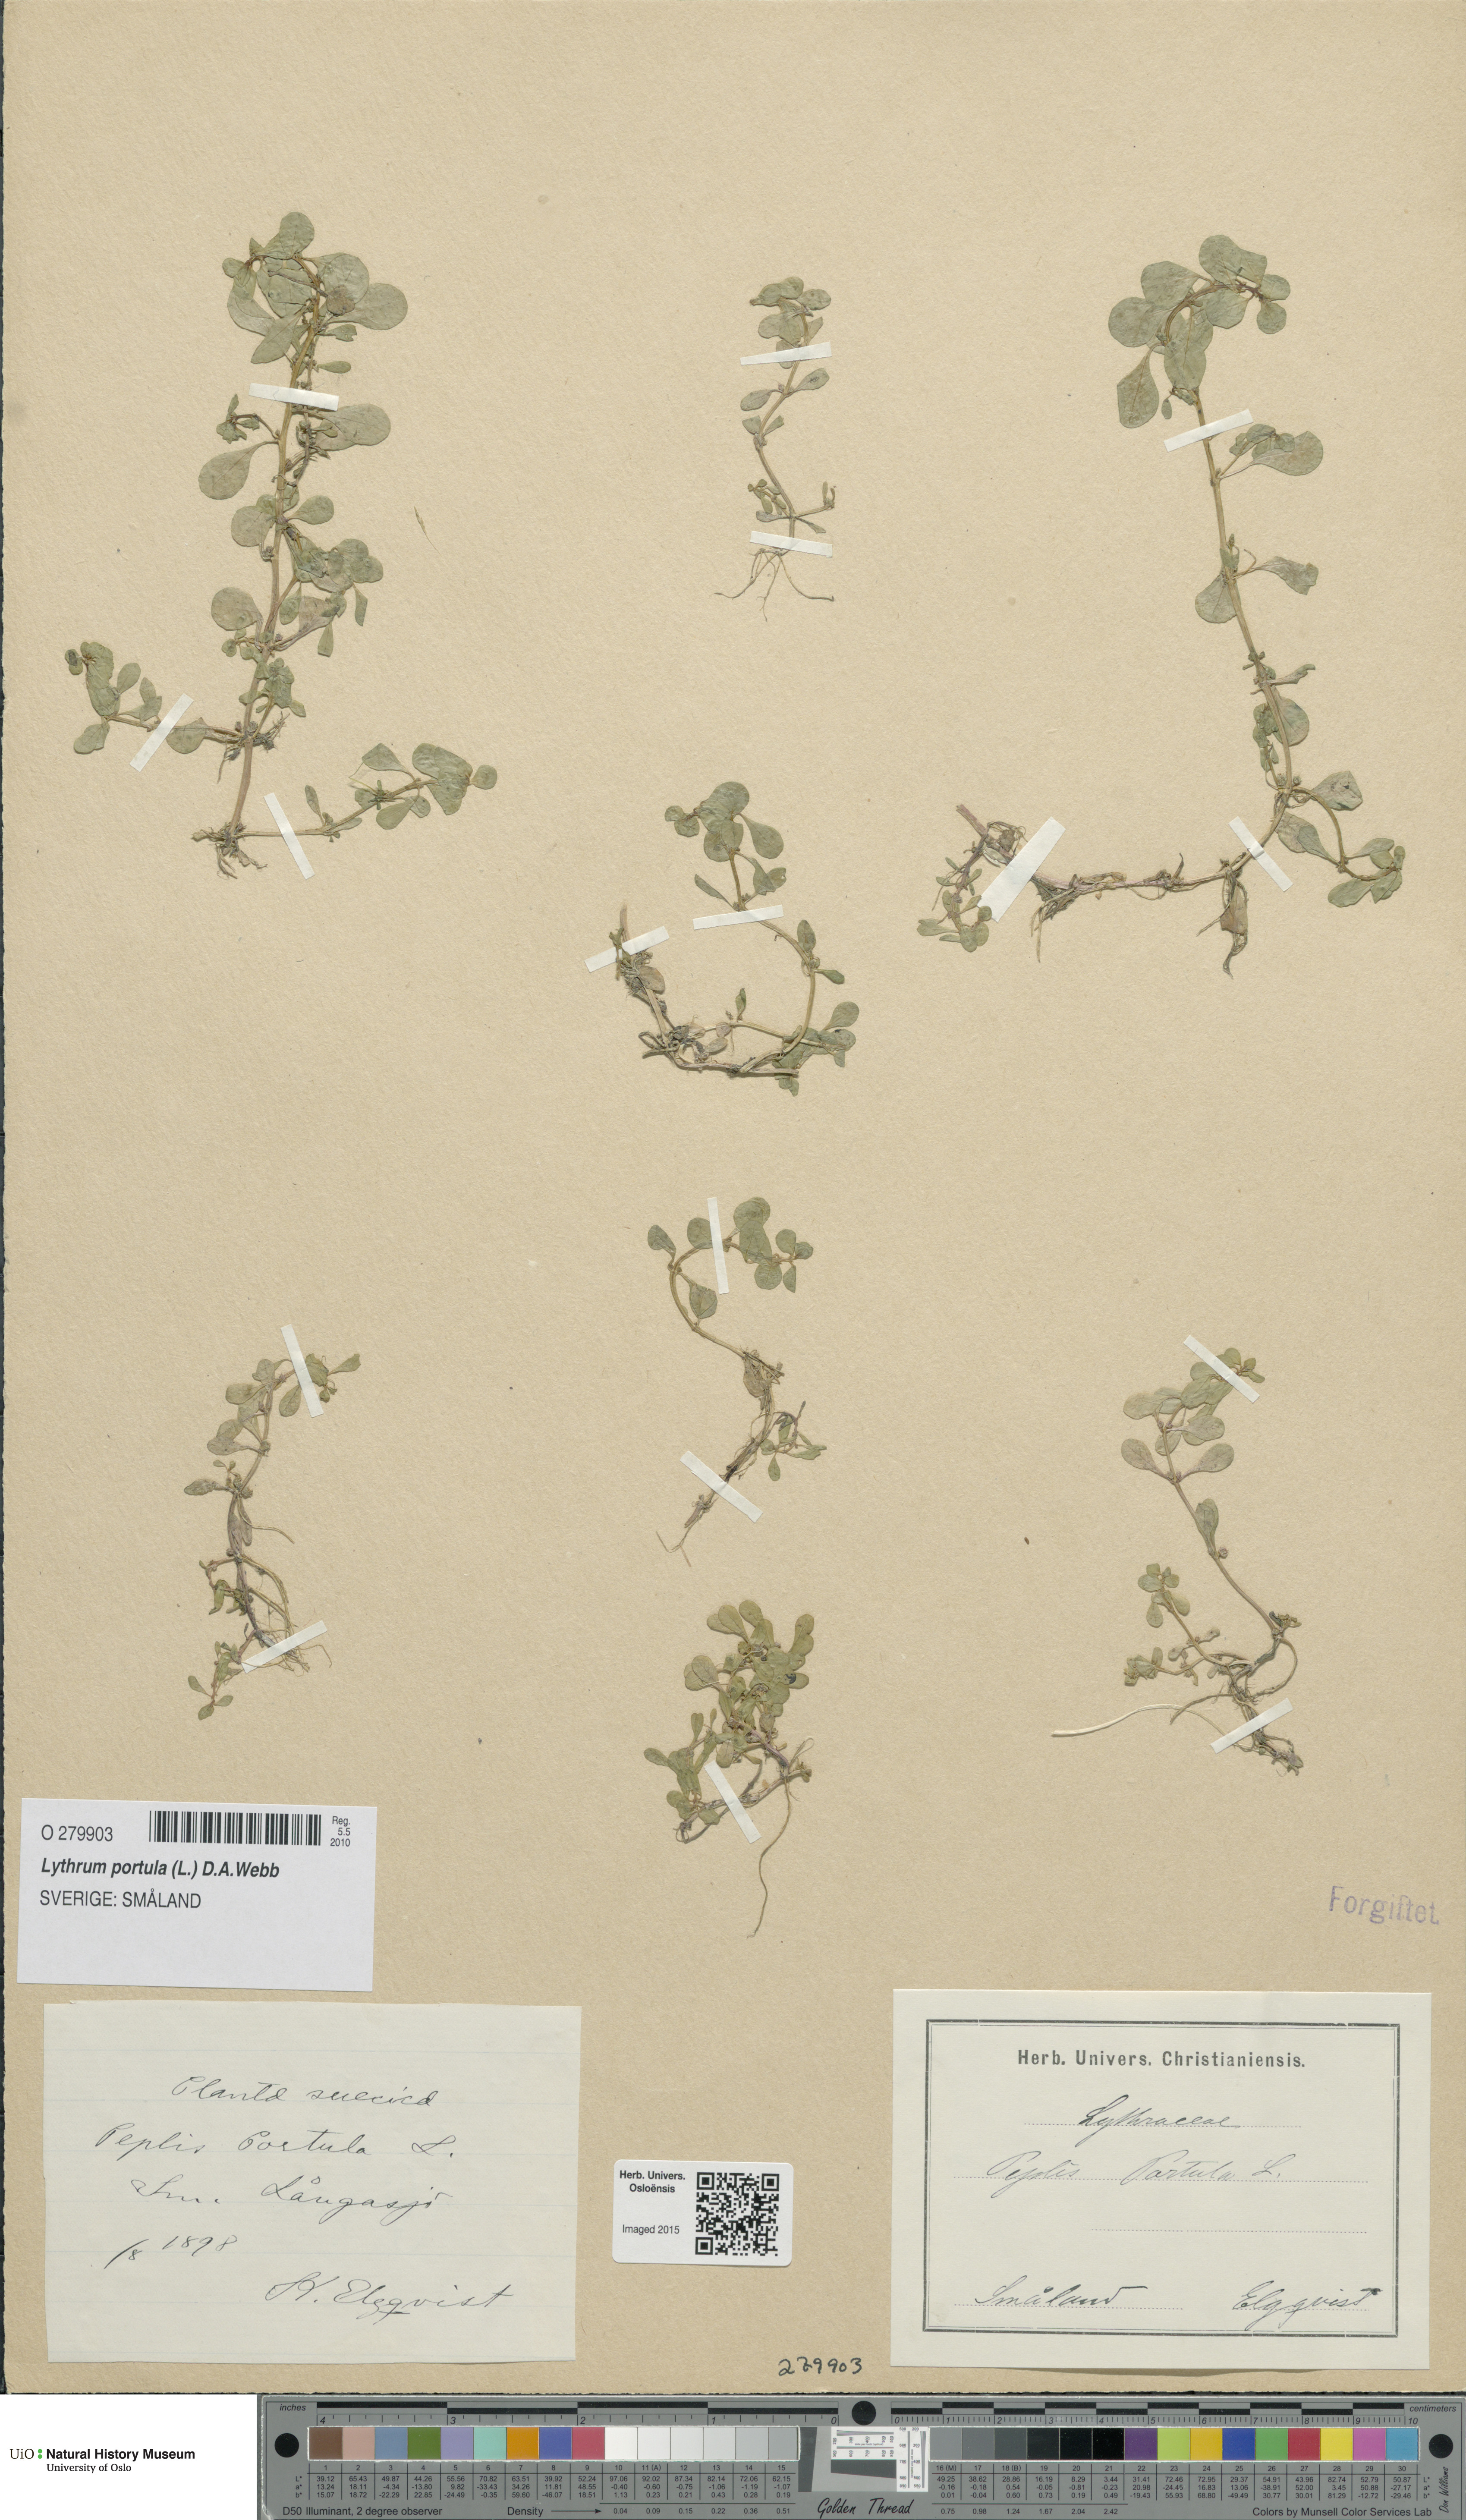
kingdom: Plantae
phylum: Tracheophyta
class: Magnoliopsida
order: Myrtales
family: Lythraceae
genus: Lythrum
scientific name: Lythrum portula
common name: Water purslane
